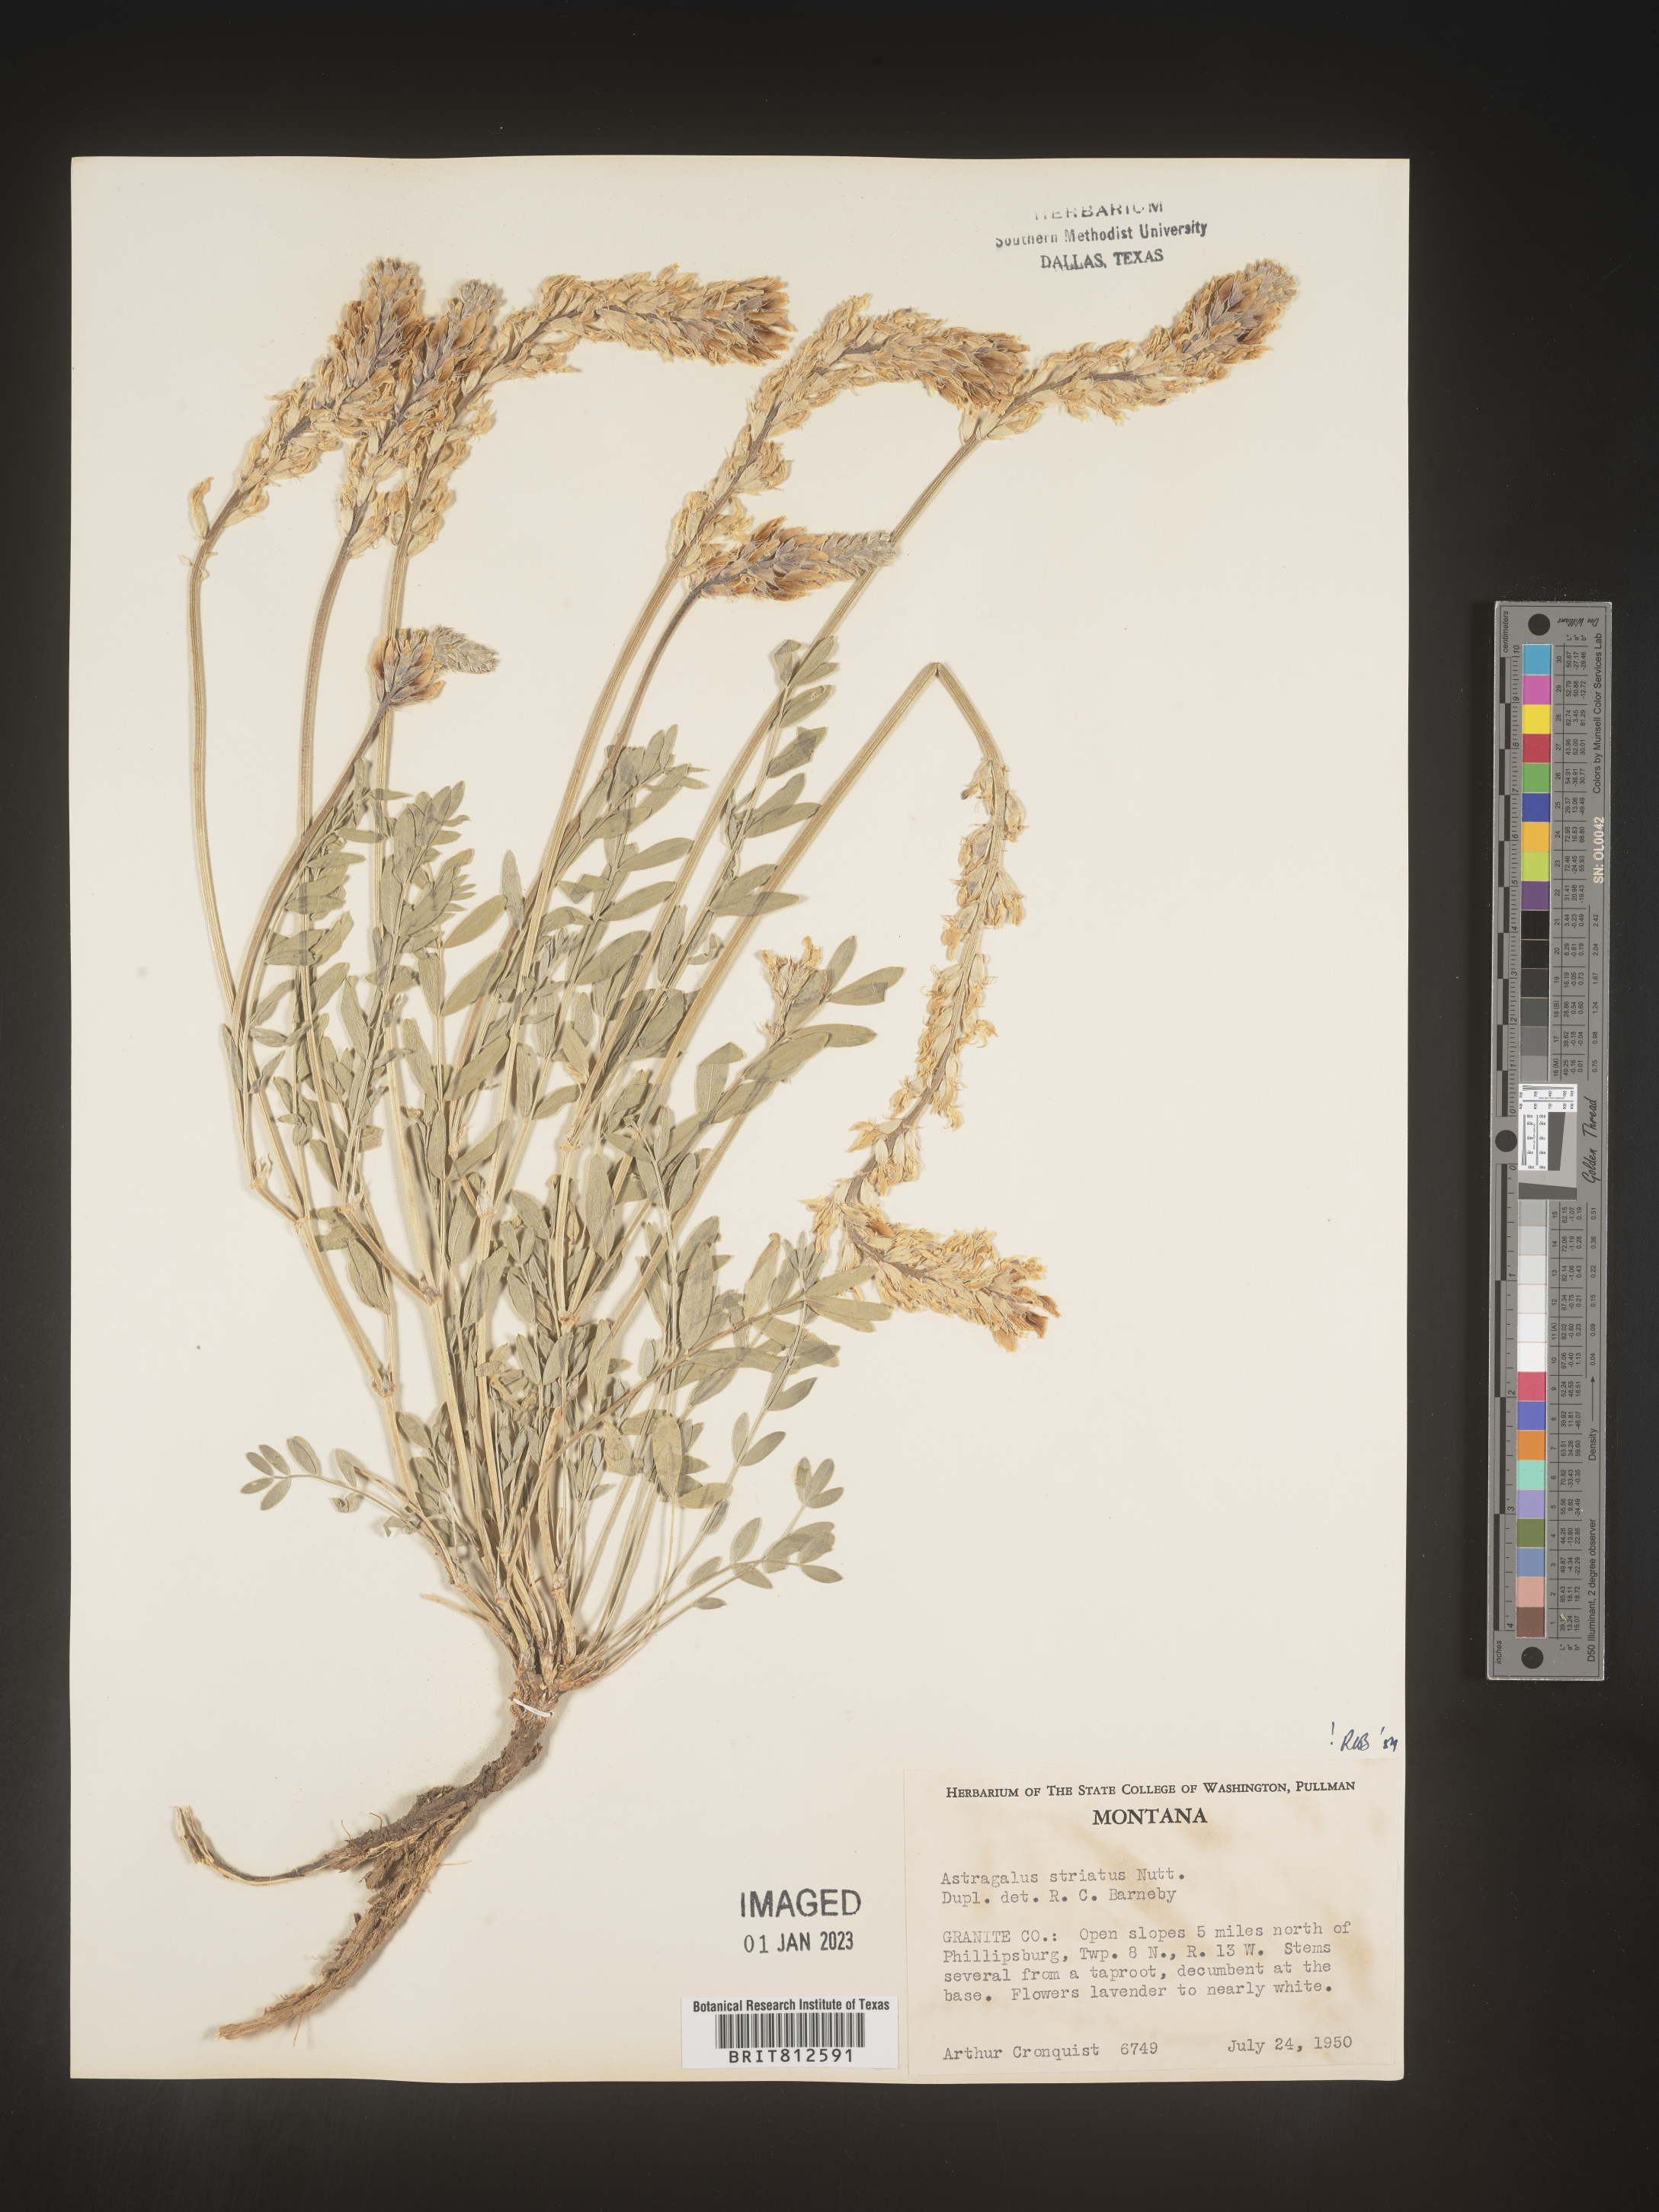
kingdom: Plantae
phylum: Tracheophyta
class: Magnoliopsida
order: Fabales
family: Fabaceae
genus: Astragalus
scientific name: Astragalus laxmannii
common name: Laxmann's milk-vetch
